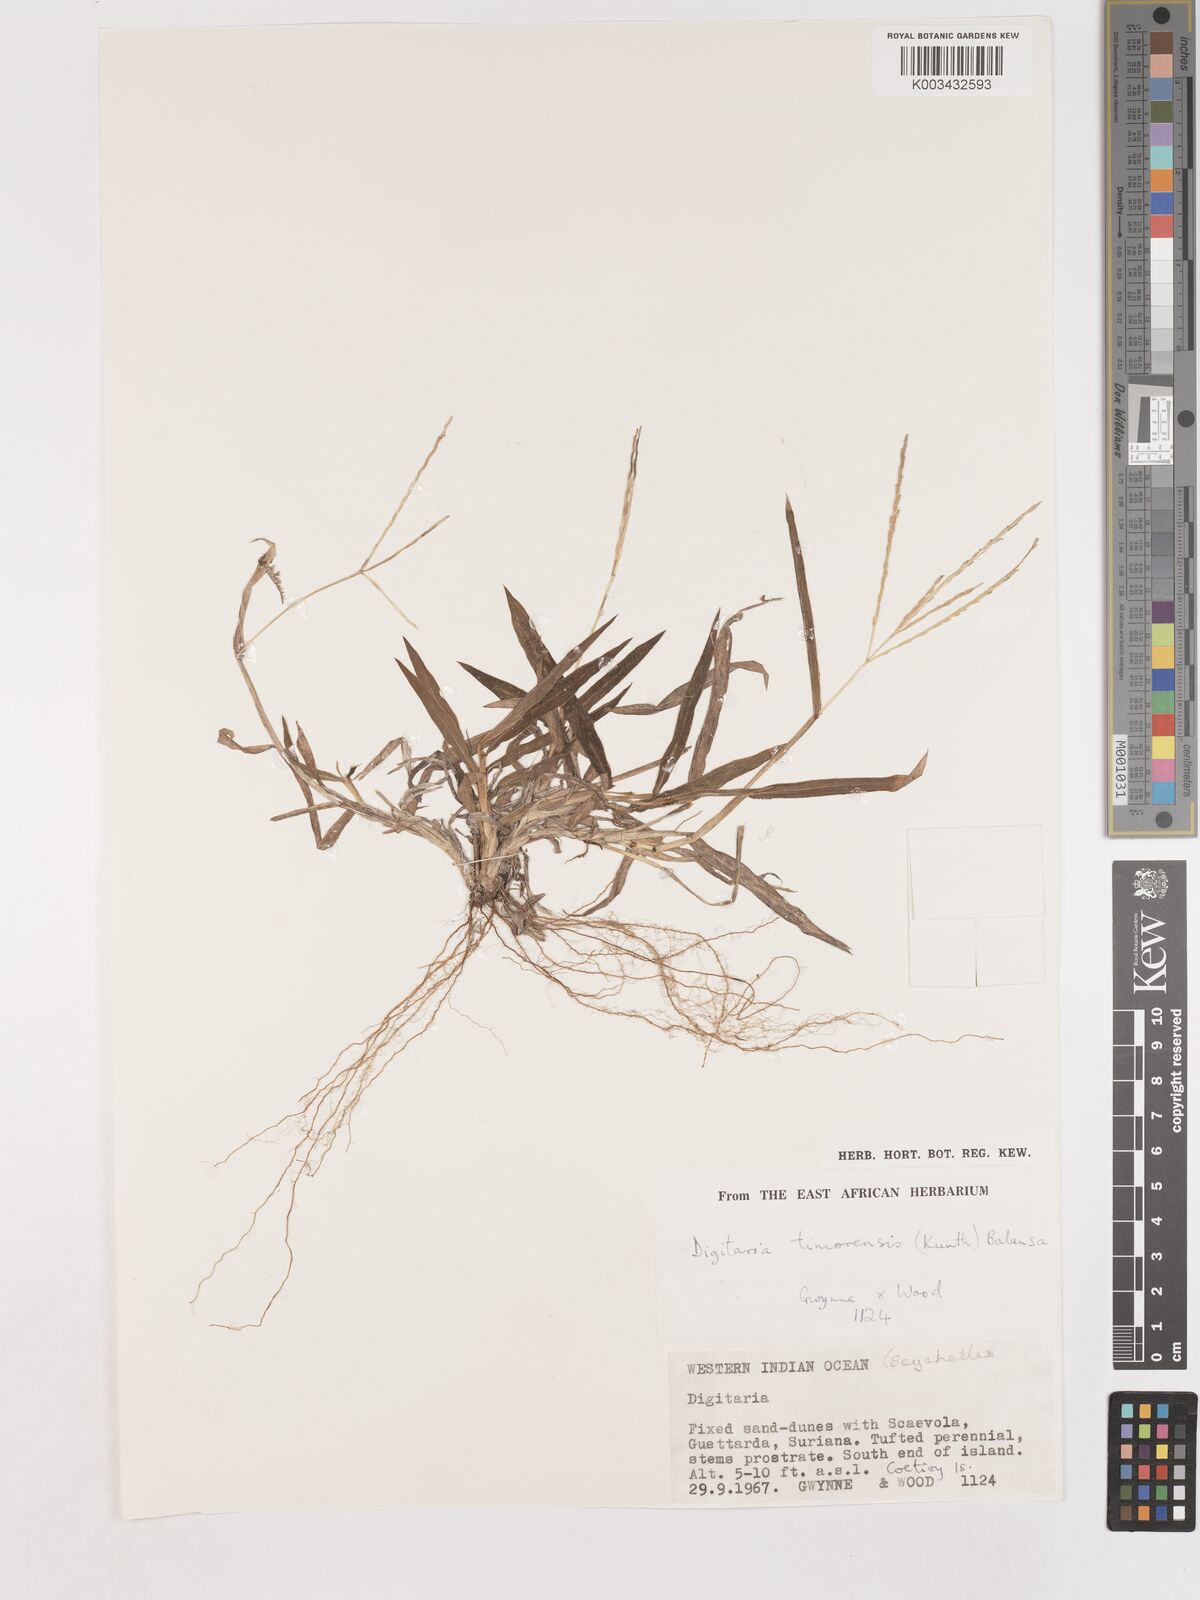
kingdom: Plantae
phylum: Tracheophyta
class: Liliopsida
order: Poales
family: Poaceae
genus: Digitaria
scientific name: Digitaria setigera
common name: East indian crabgrass
